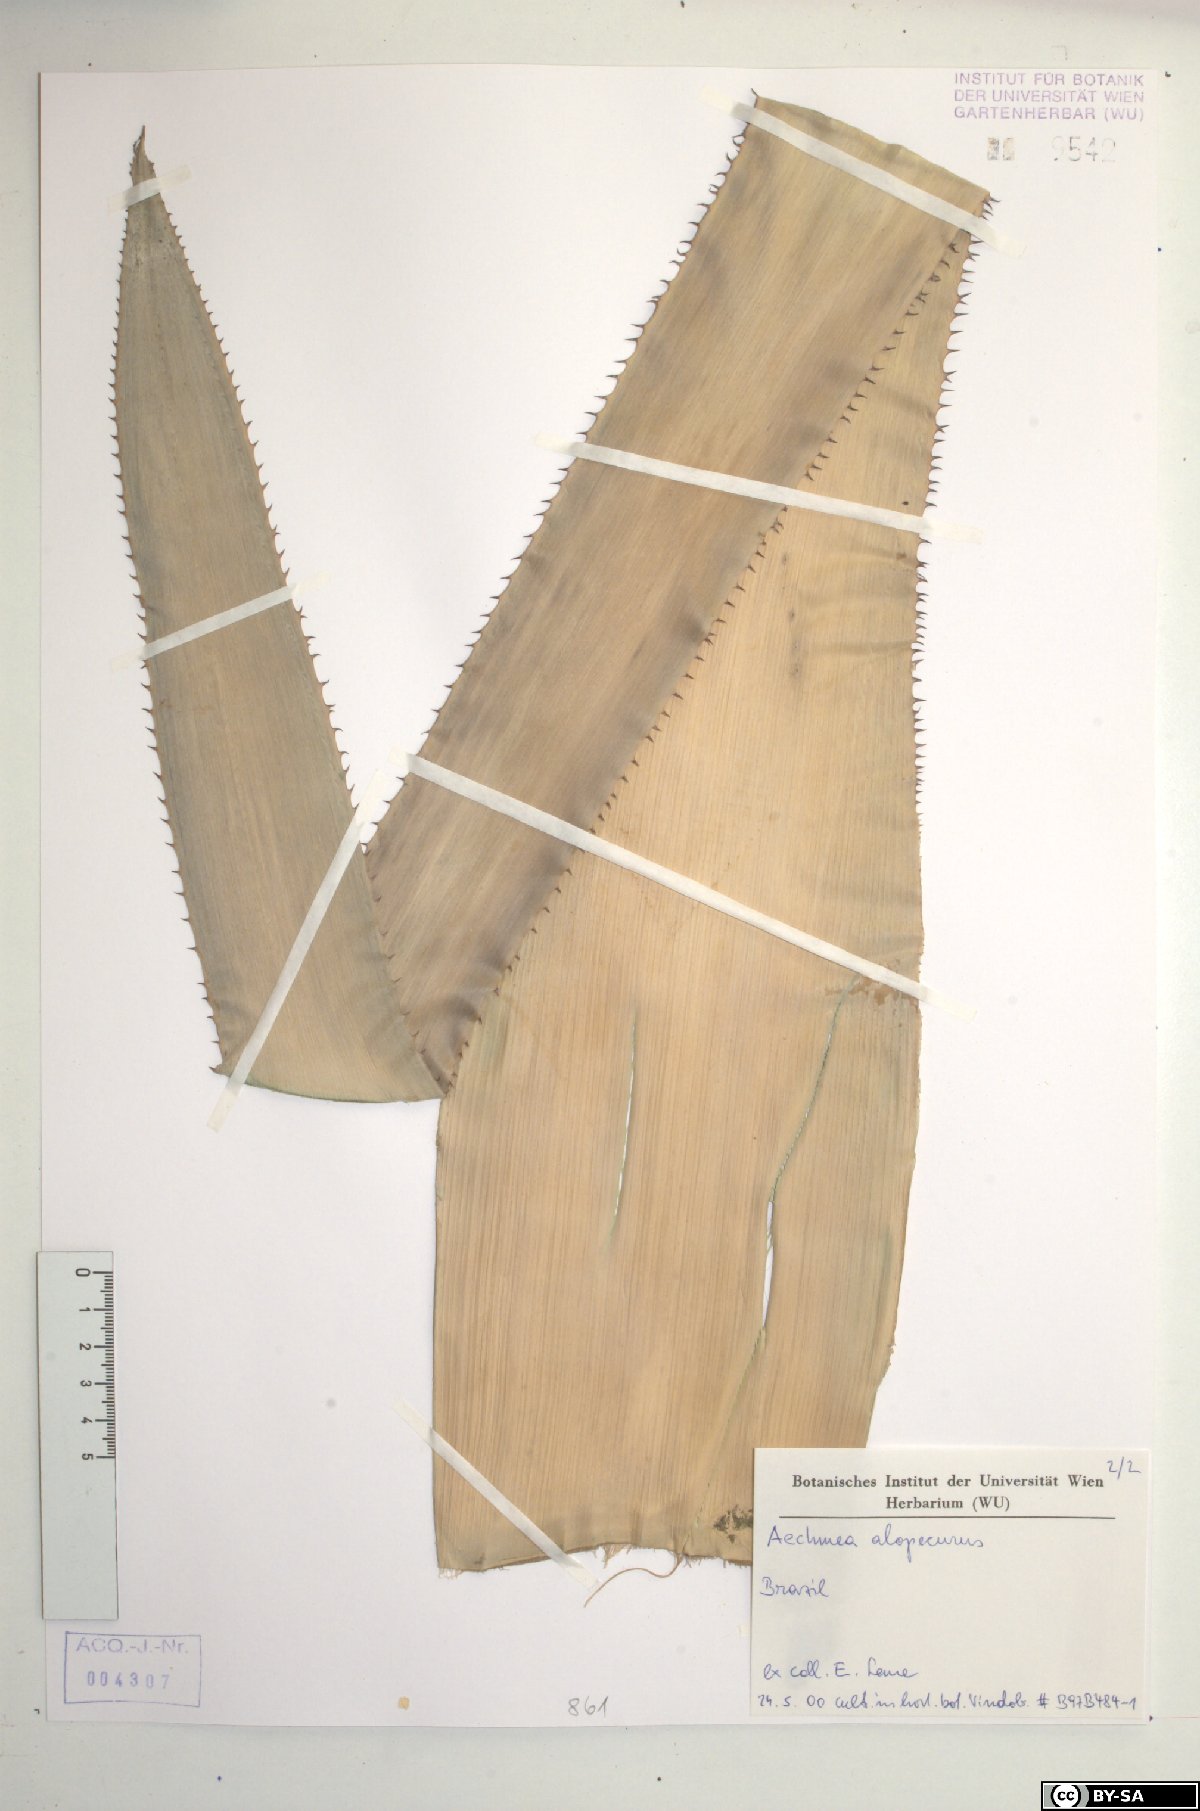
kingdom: Plantae
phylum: Tracheophyta
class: Liliopsida
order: Poales
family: Bromeliaceae
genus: Aechmea
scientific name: Aechmea alopecurus
